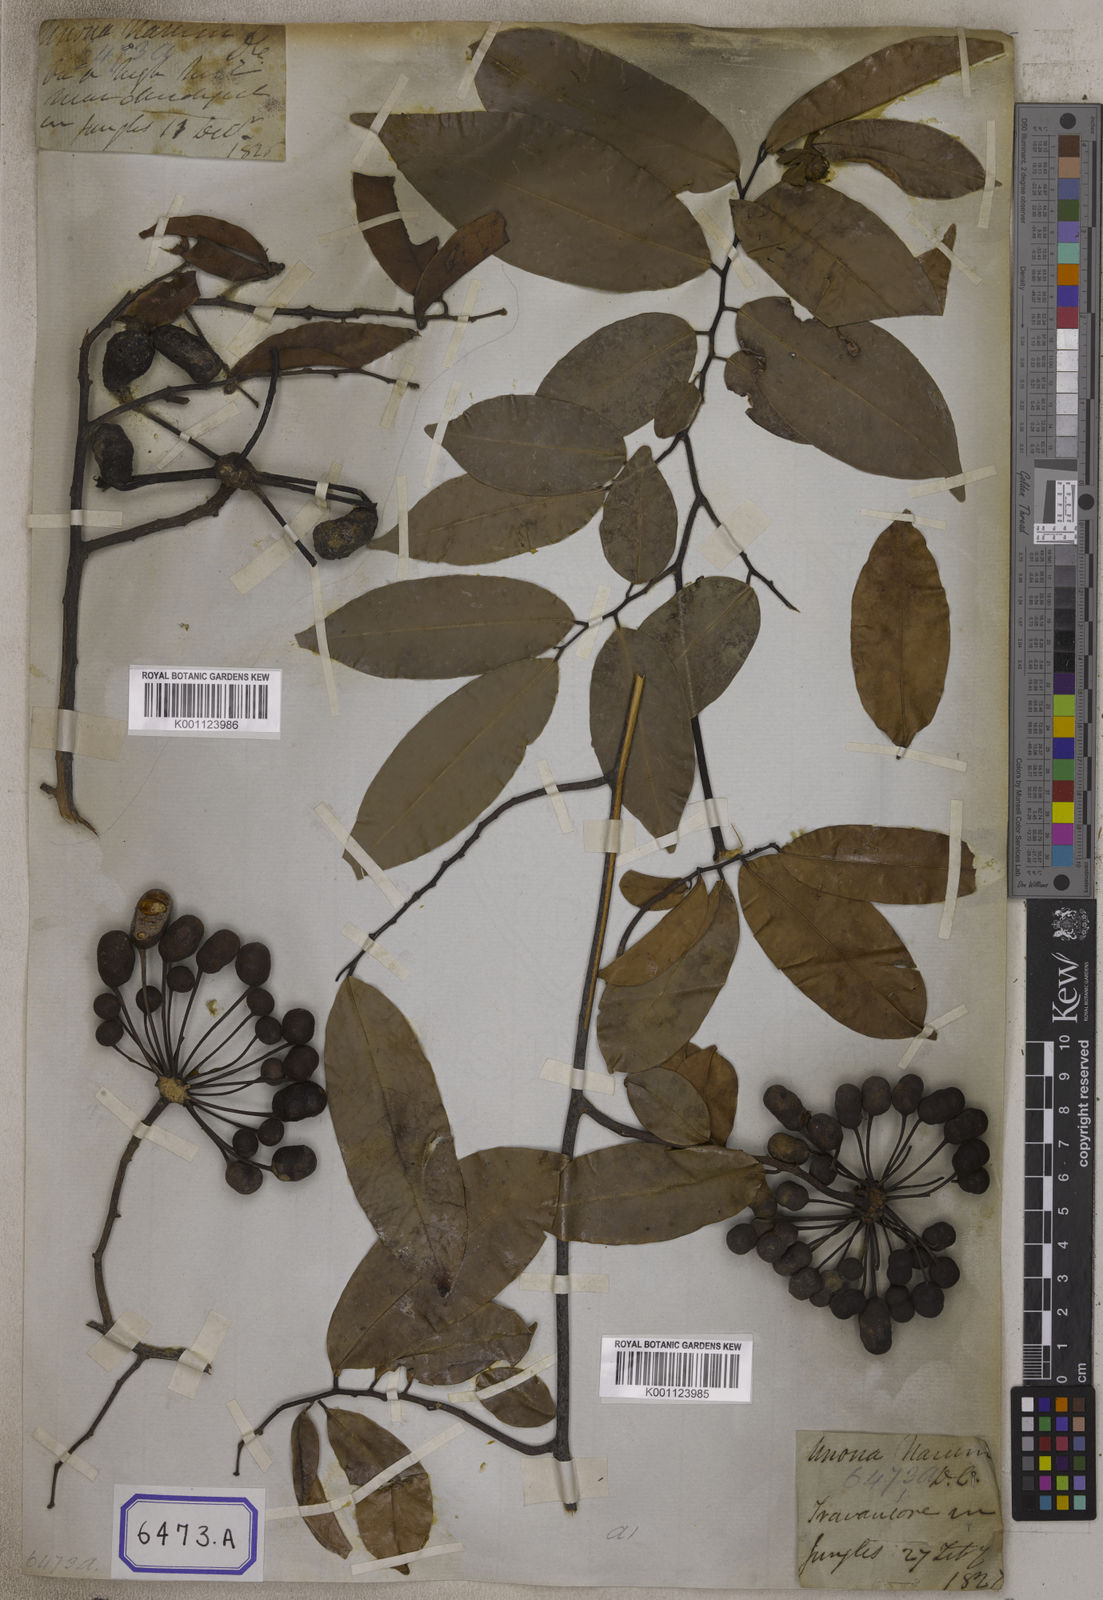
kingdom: Plantae
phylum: Tracheophyta
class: Magnoliopsida
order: Magnoliales
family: Annonaceae
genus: Uvaria
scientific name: Uvaria
